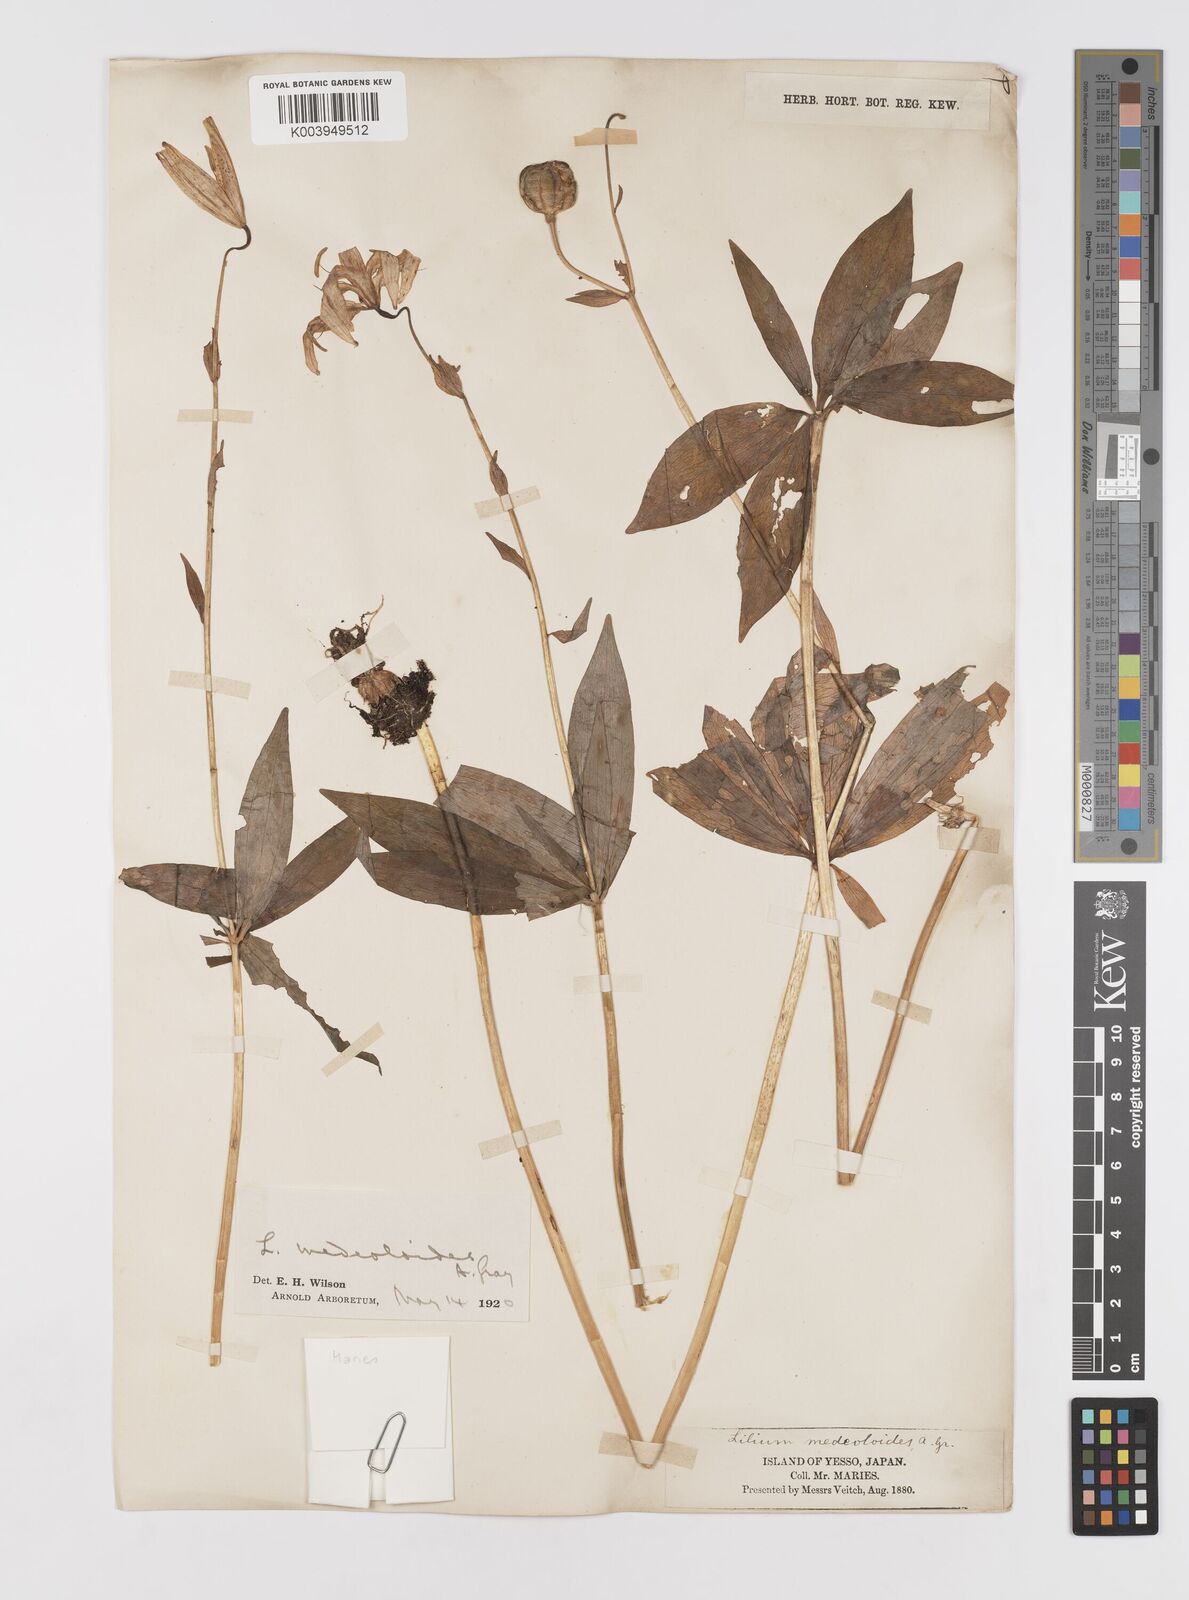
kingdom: Plantae
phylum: Tracheophyta
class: Liliopsida
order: Liliales
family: Liliaceae
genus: Lilium
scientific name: Lilium medeoloides
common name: Wheel lily
